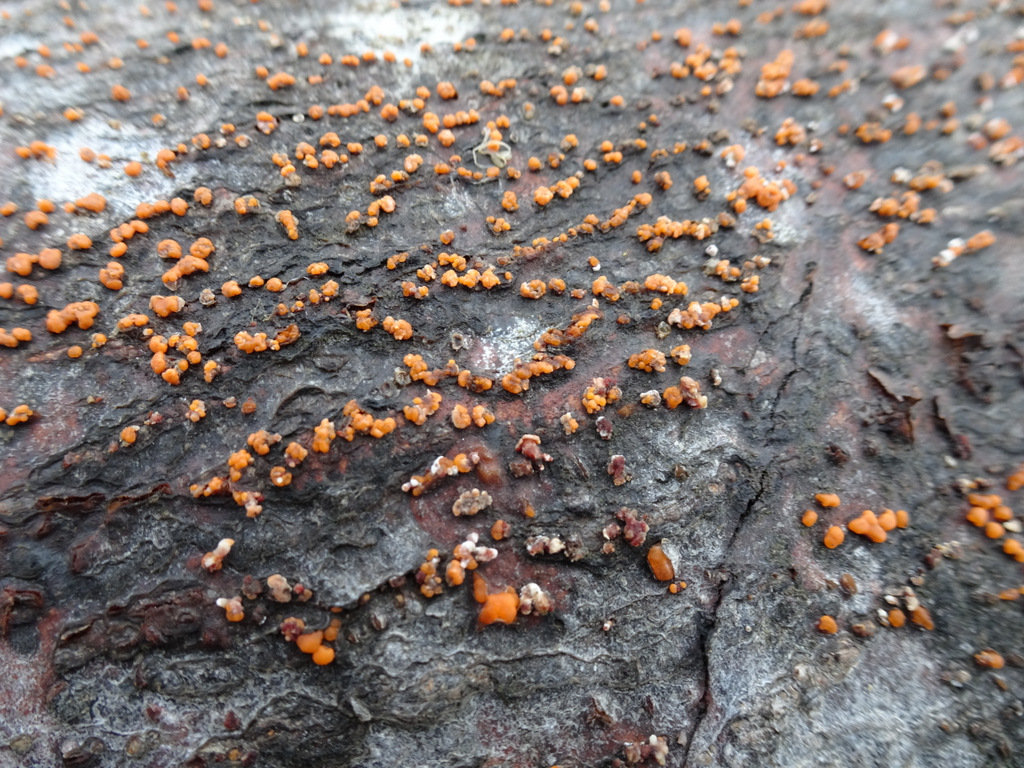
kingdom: Fungi
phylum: Ascomycota
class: Sordariomycetes
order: Hypocreales
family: Nectriaceae
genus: Nectria
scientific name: Nectria cinnabarina
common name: almindelig cinnobersvamp
